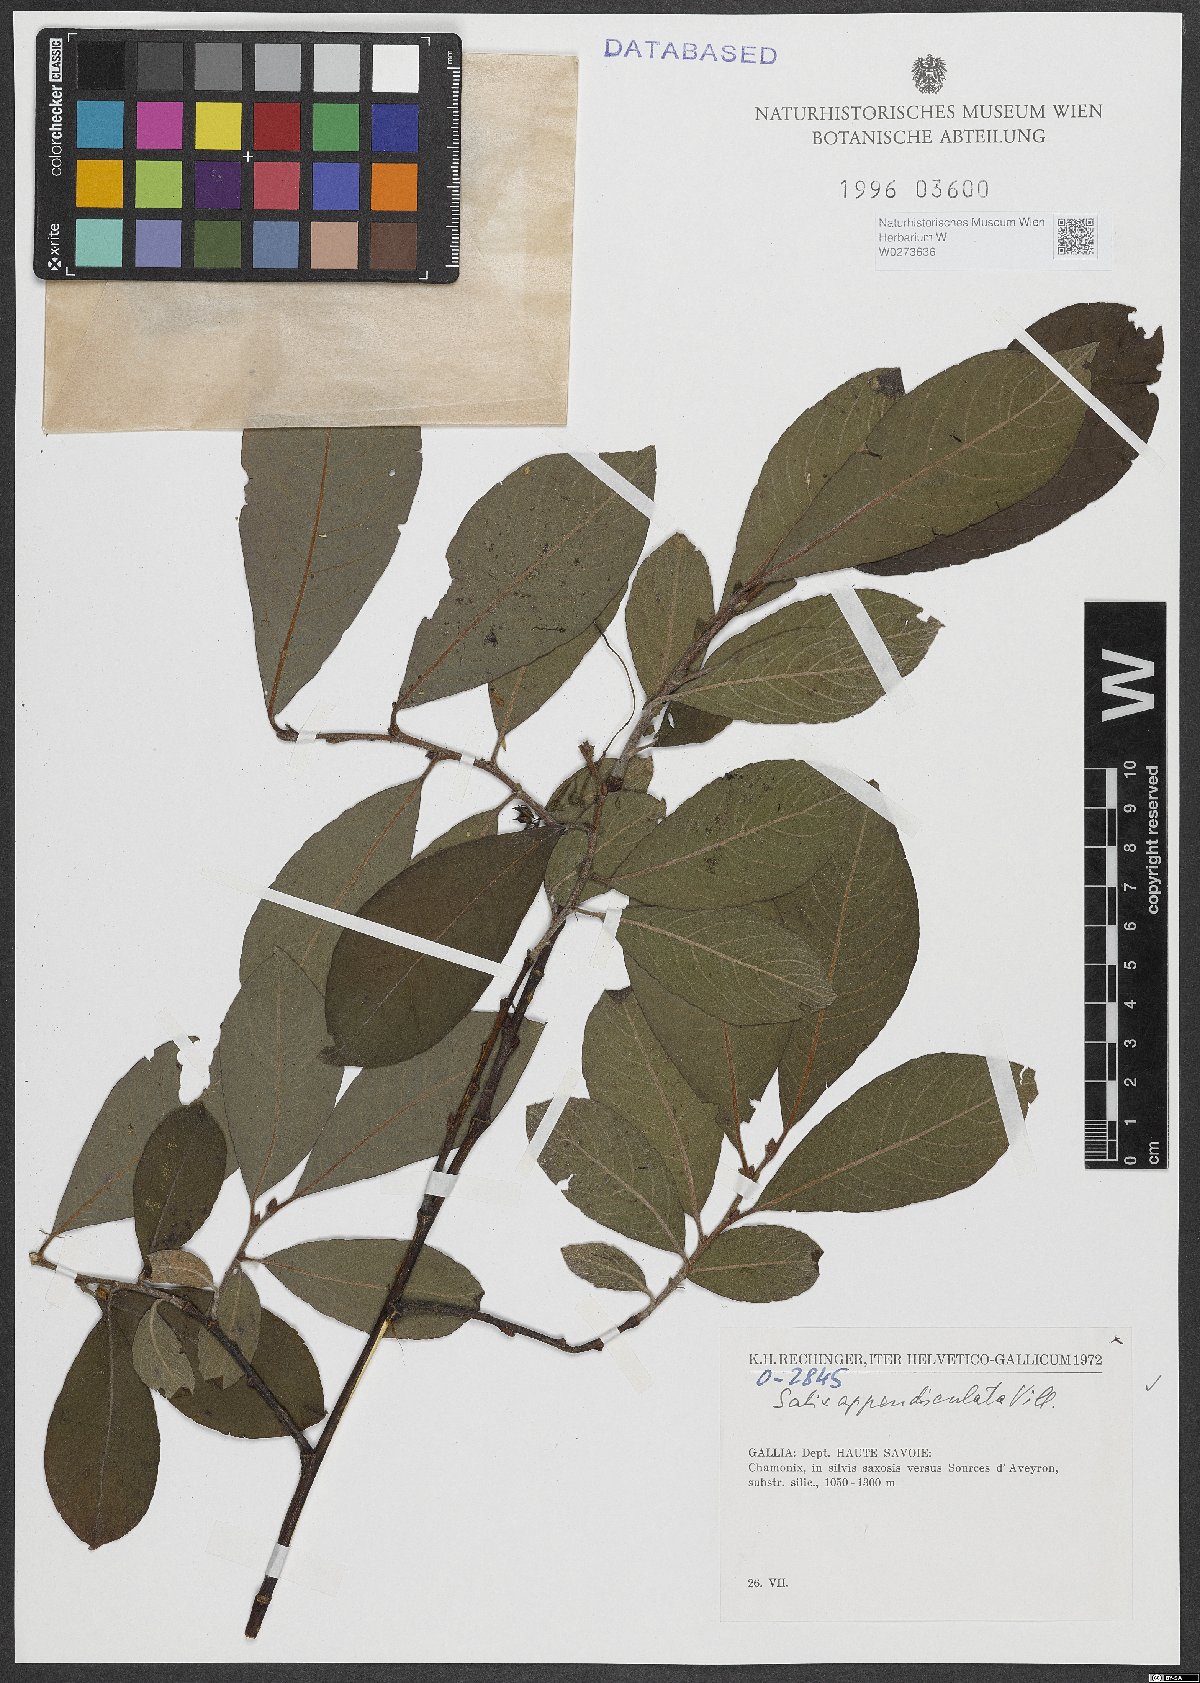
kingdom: Plantae
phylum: Tracheophyta
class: Magnoliopsida
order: Malpighiales
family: Salicaceae
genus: Salix
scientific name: Salix appendiculata
